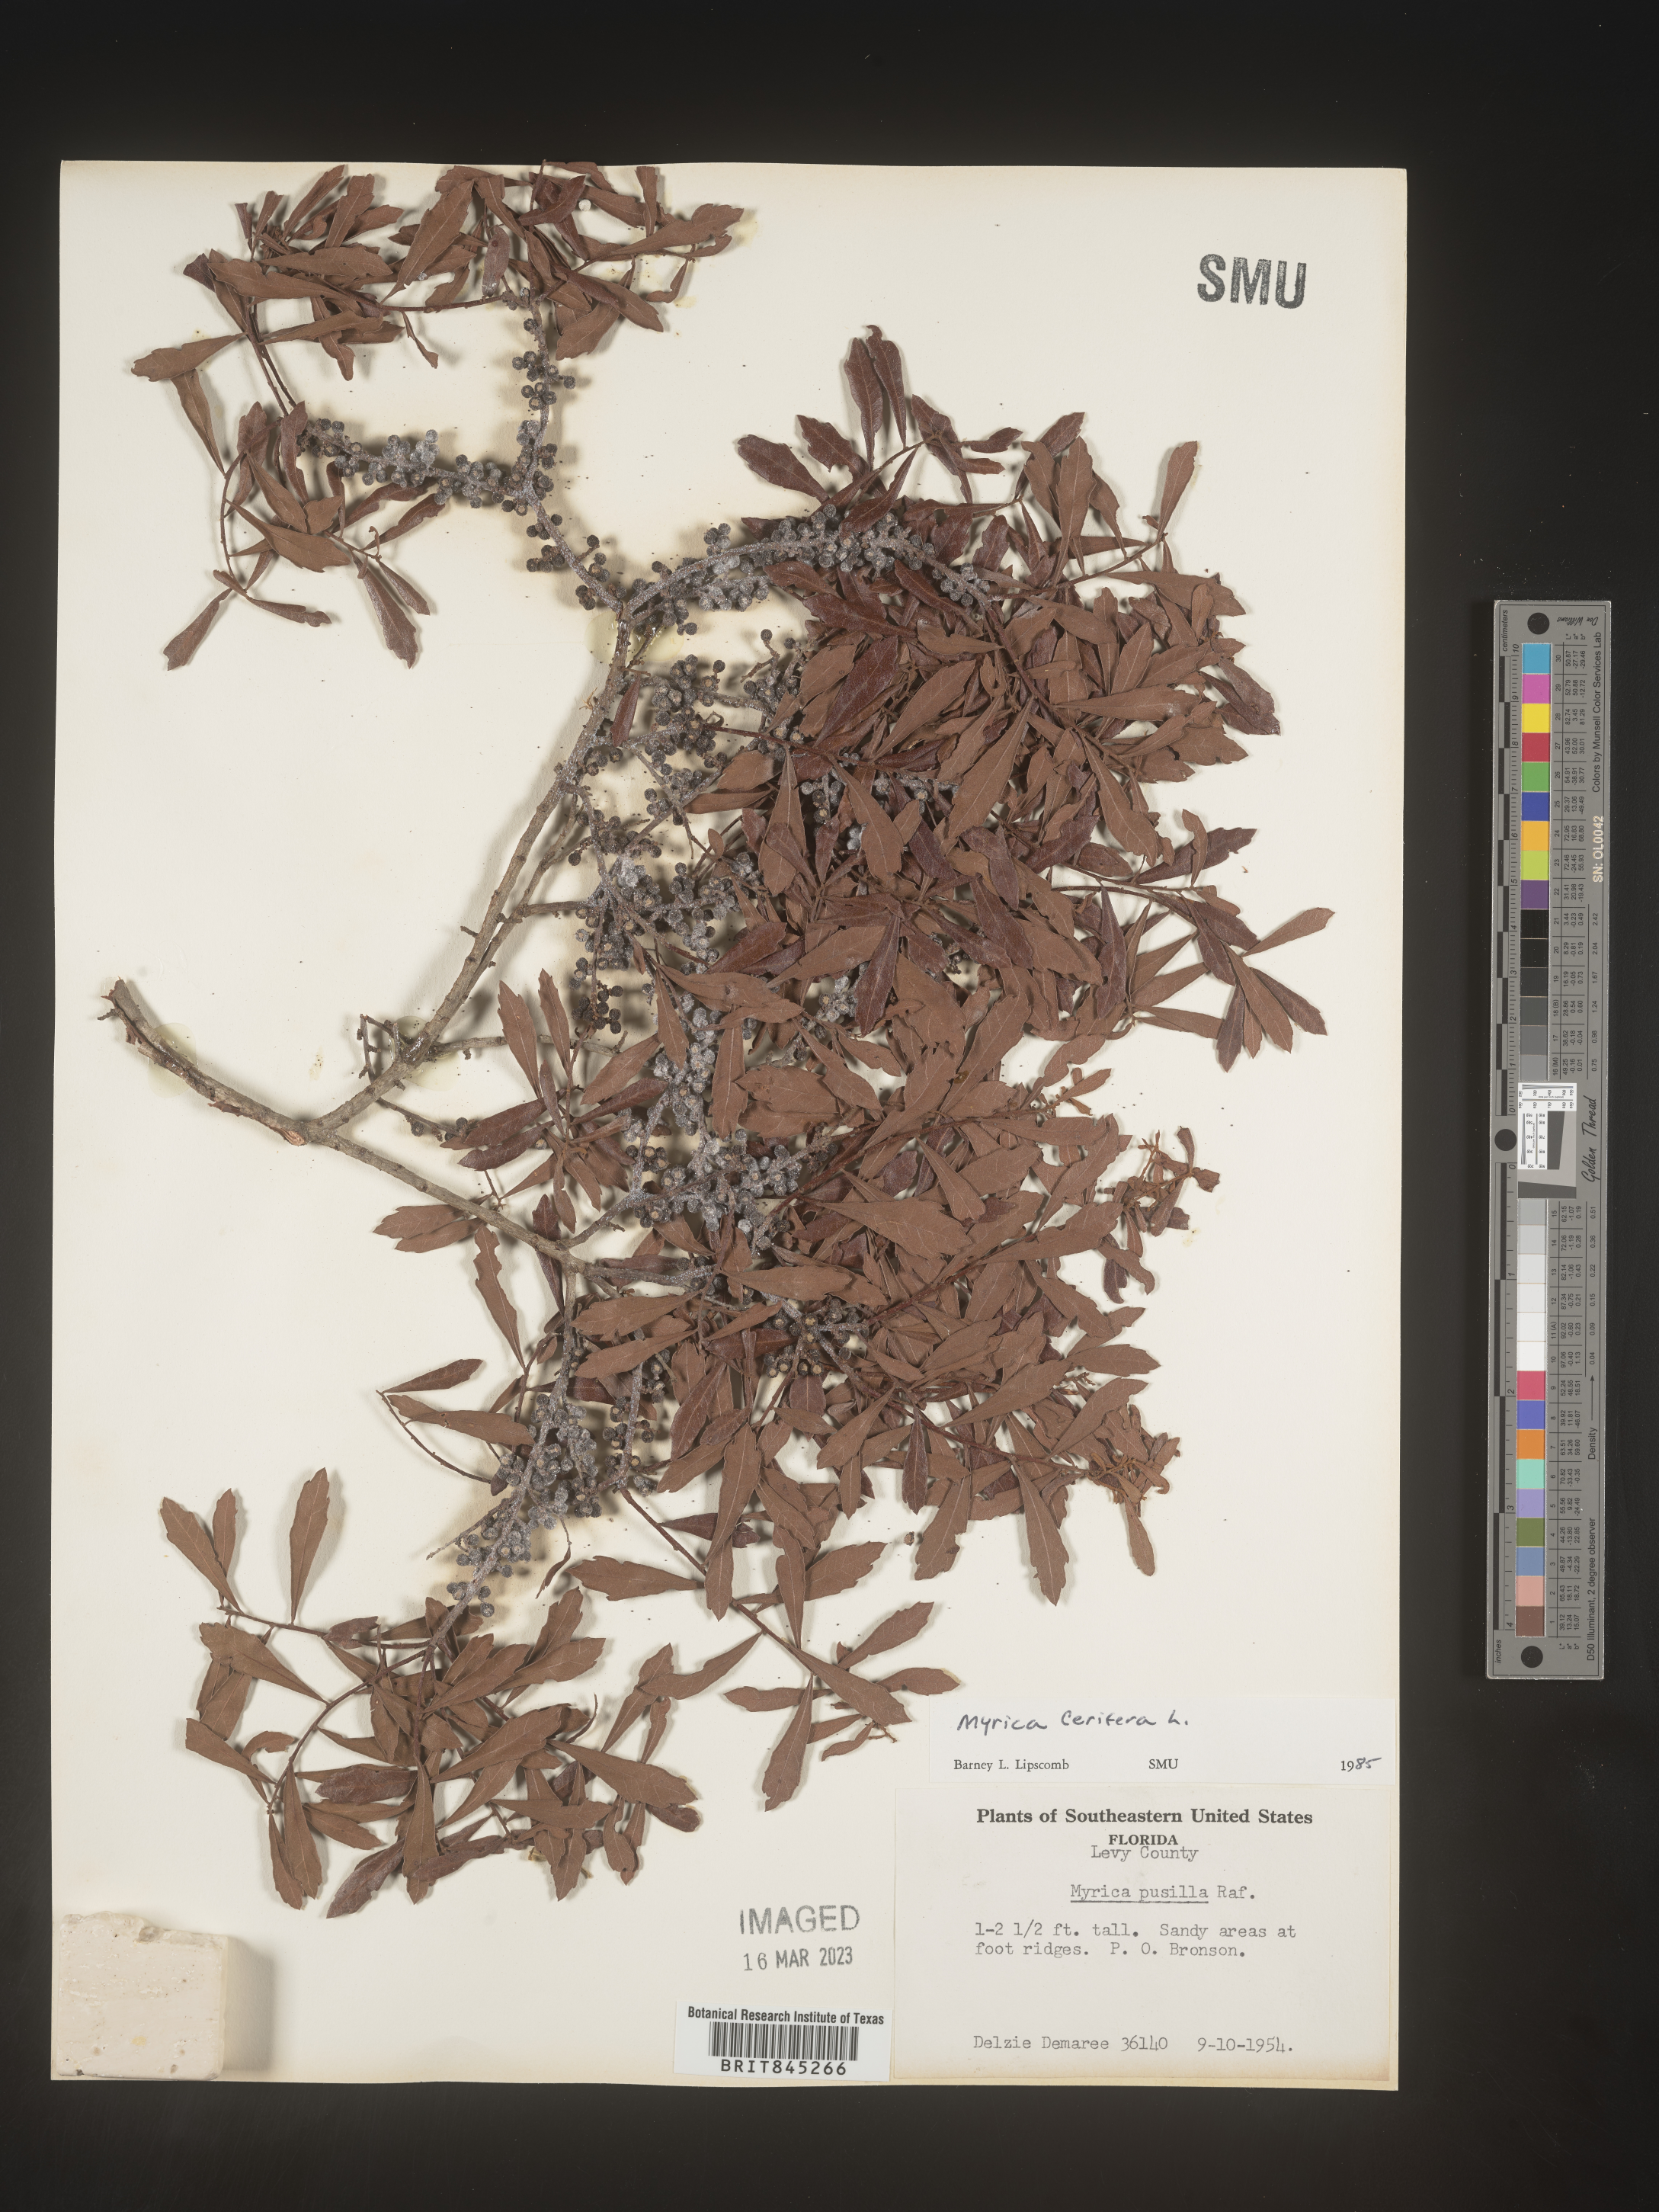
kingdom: Plantae
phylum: Tracheophyta
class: Magnoliopsida
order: Fagales
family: Myricaceae
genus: Morella
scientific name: Morella cerifera
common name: Wax myrtle
